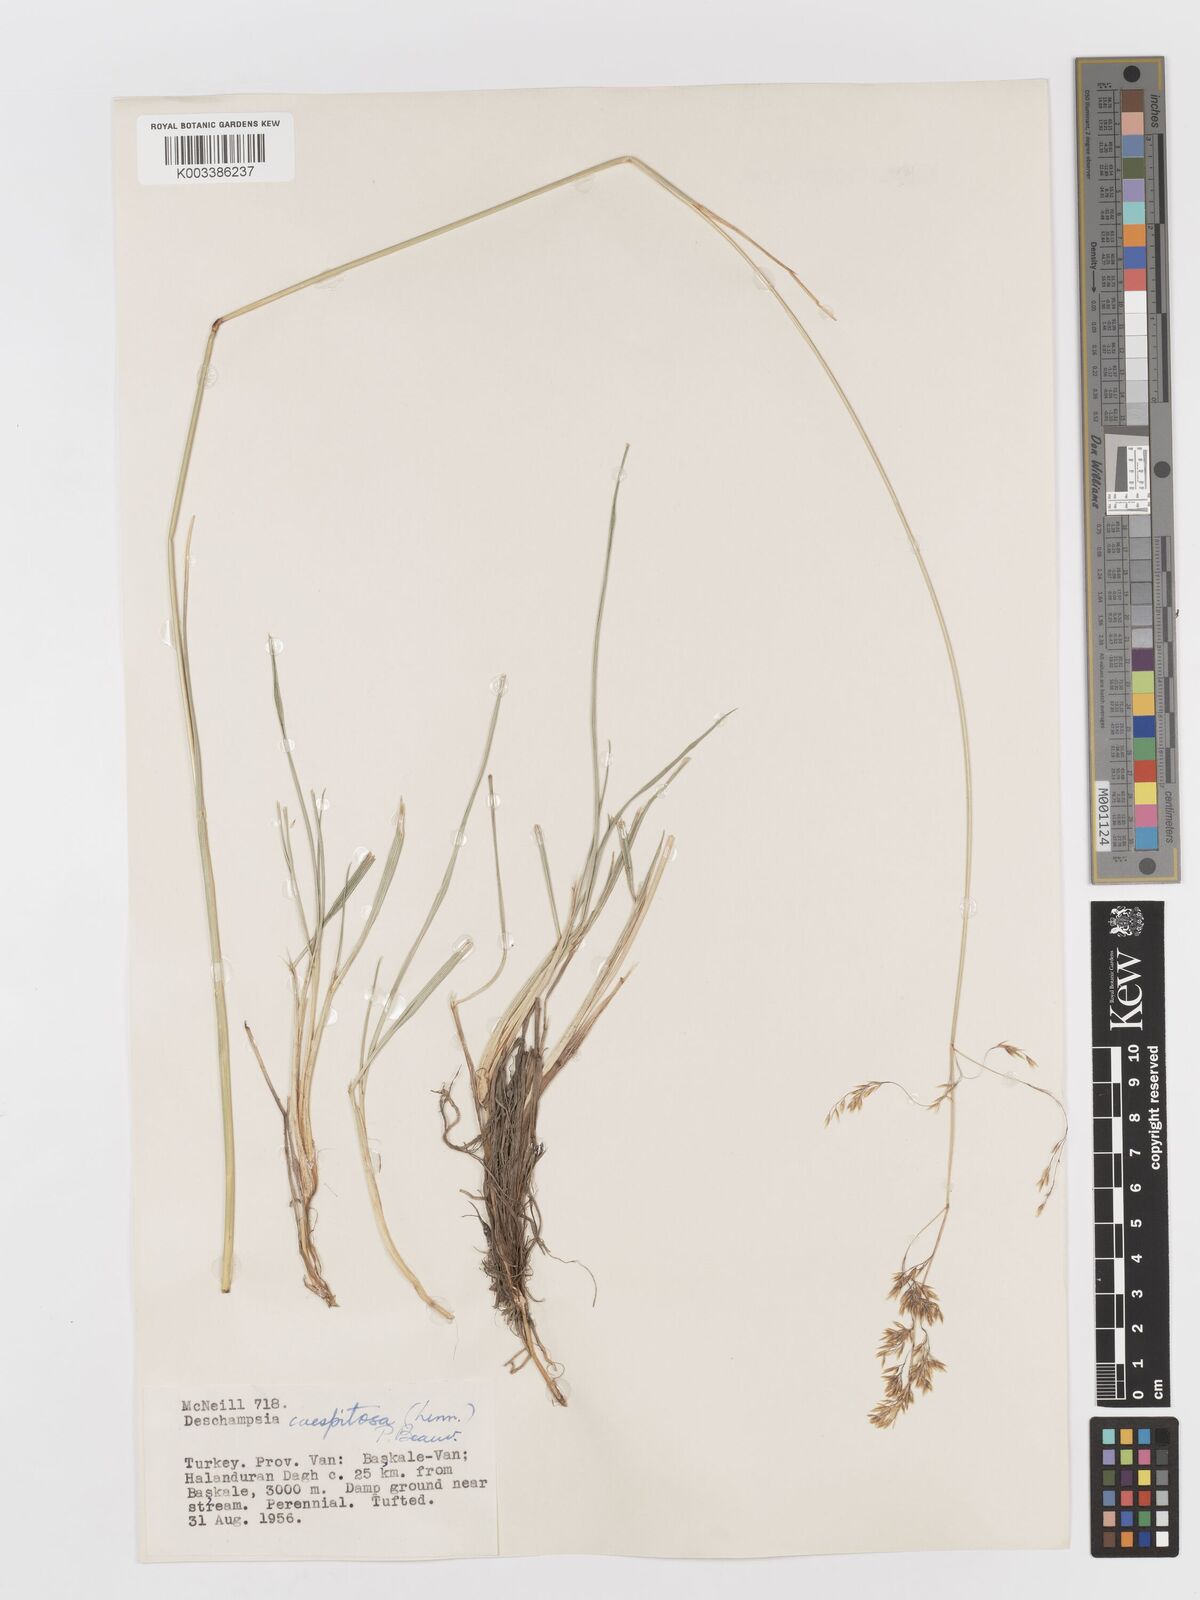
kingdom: Plantae
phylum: Tracheophyta
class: Liliopsida
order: Poales
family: Poaceae
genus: Deschampsia
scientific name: Deschampsia cespitosa
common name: Tufted hair-grass
